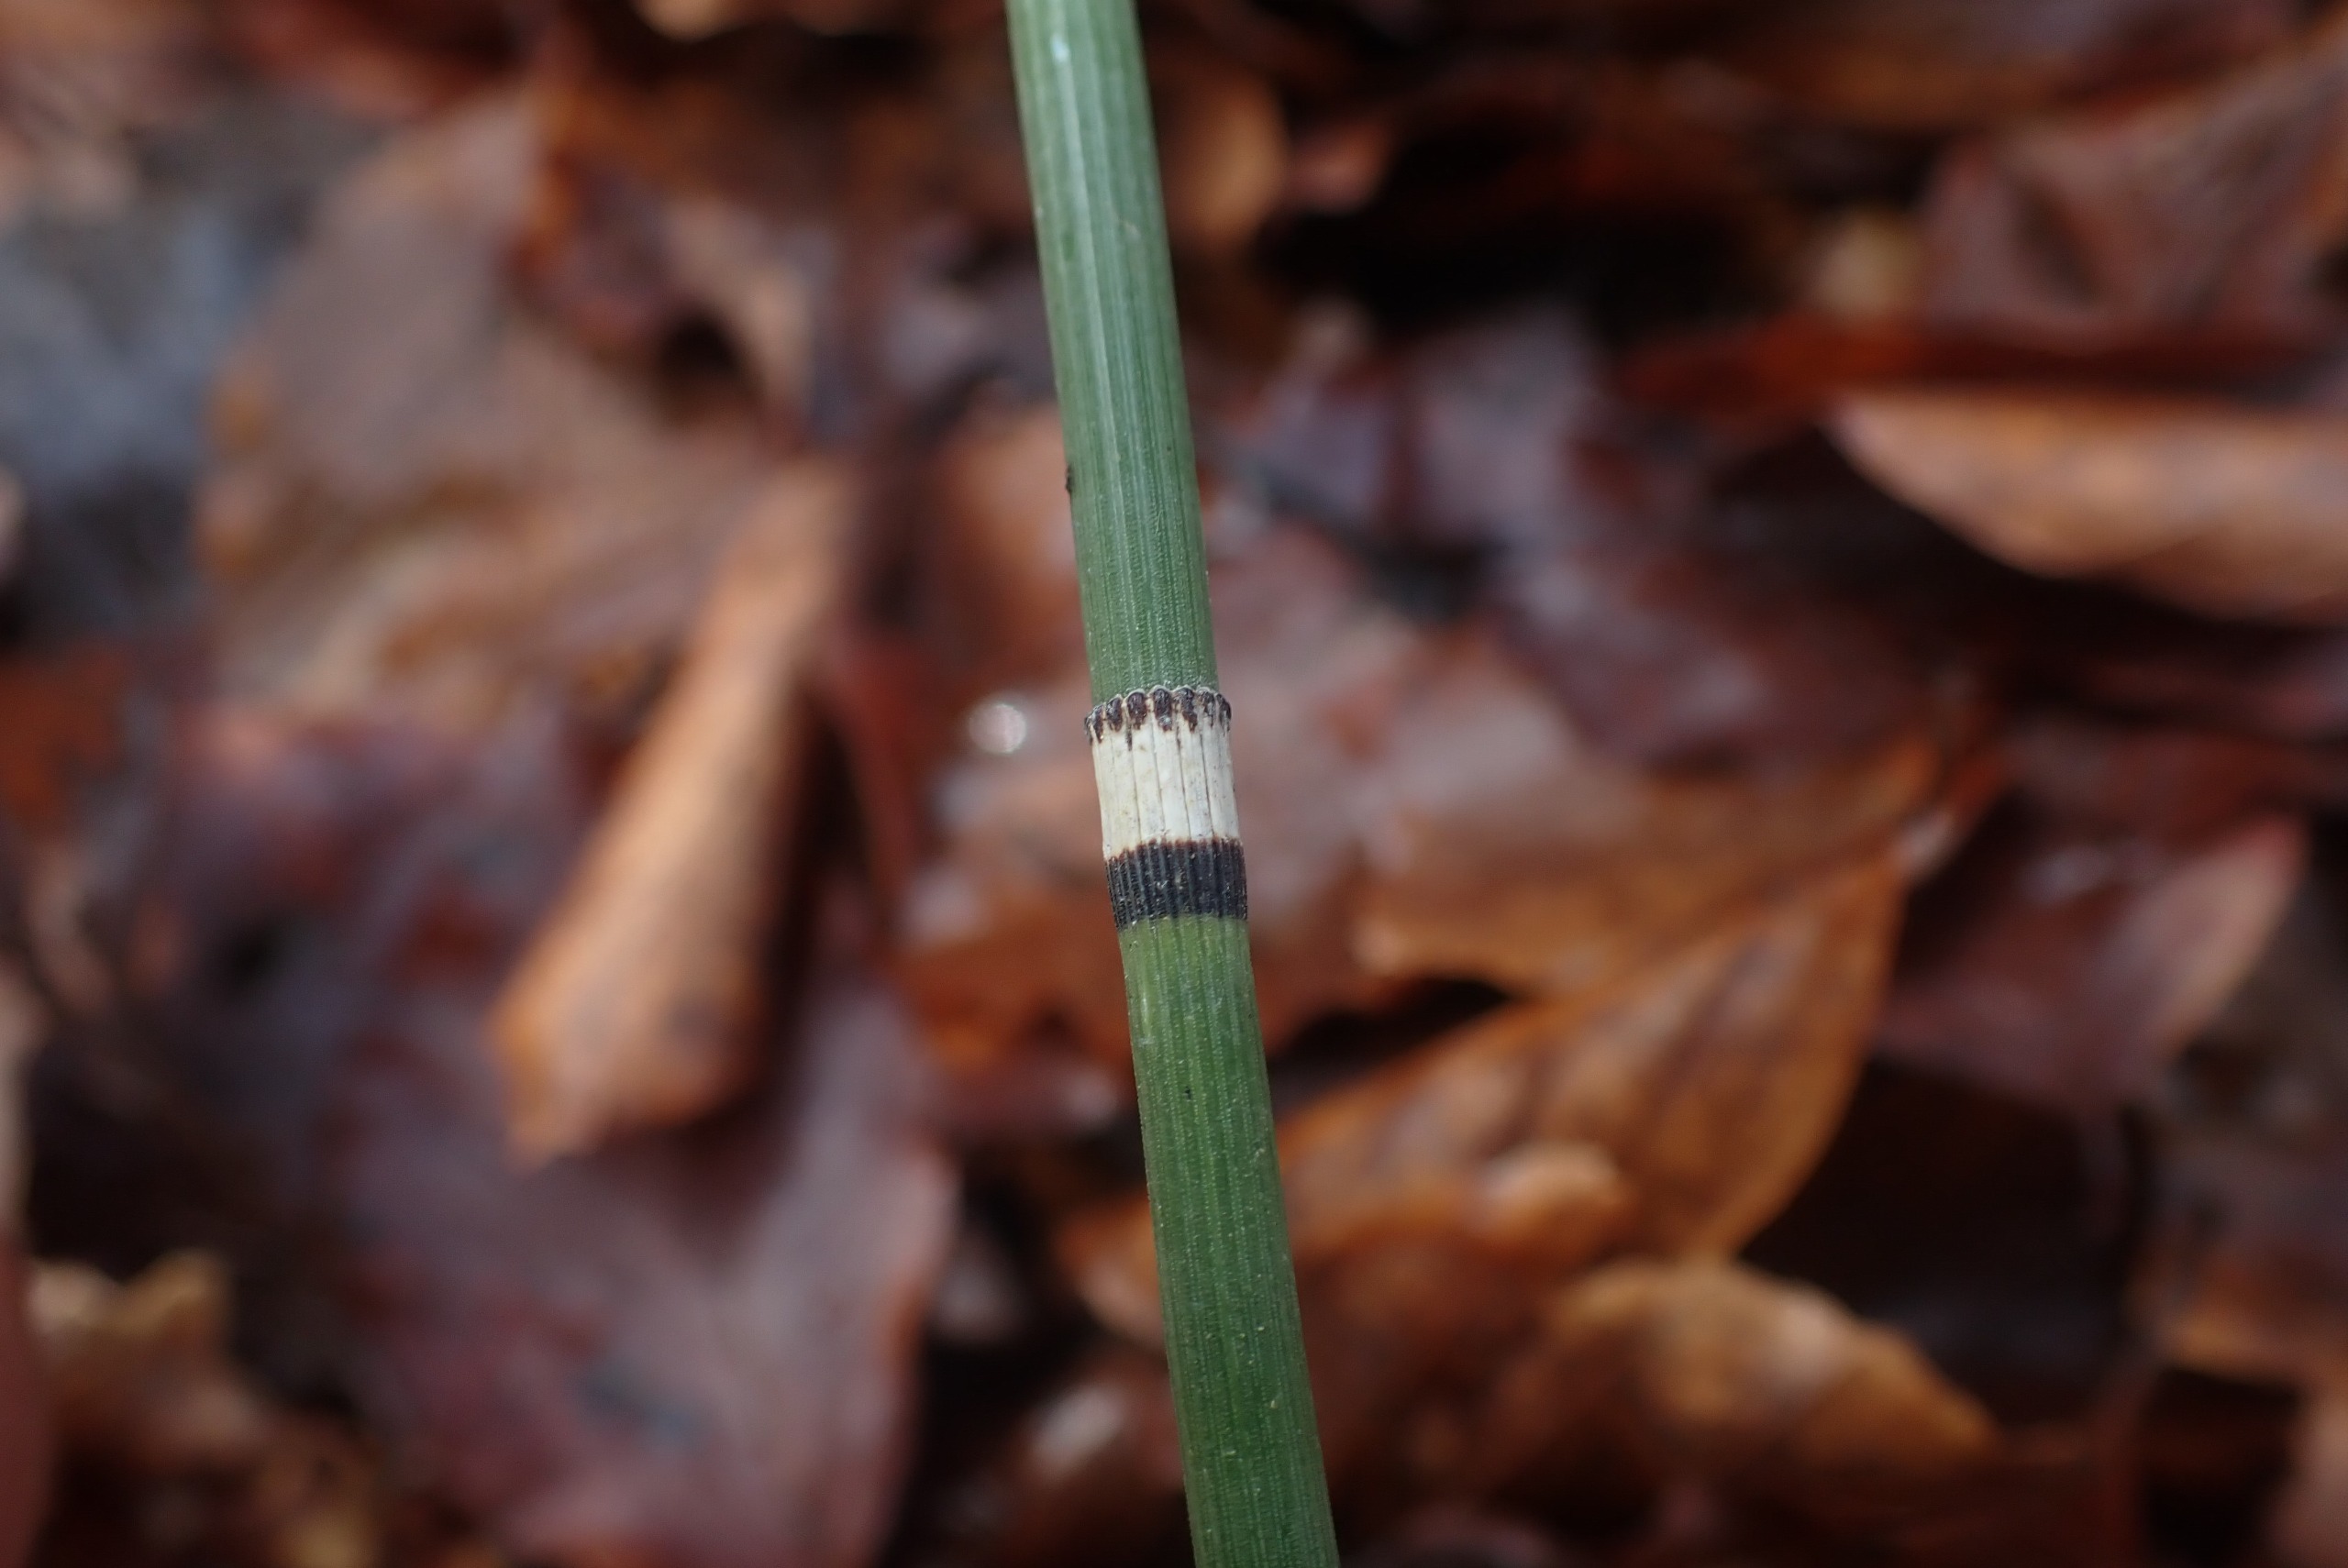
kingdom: Plantae
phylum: Tracheophyta
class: Polypodiopsida
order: Equisetales
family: Equisetaceae
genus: Equisetum
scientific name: Equisetum hyemale
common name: Skavgræs
